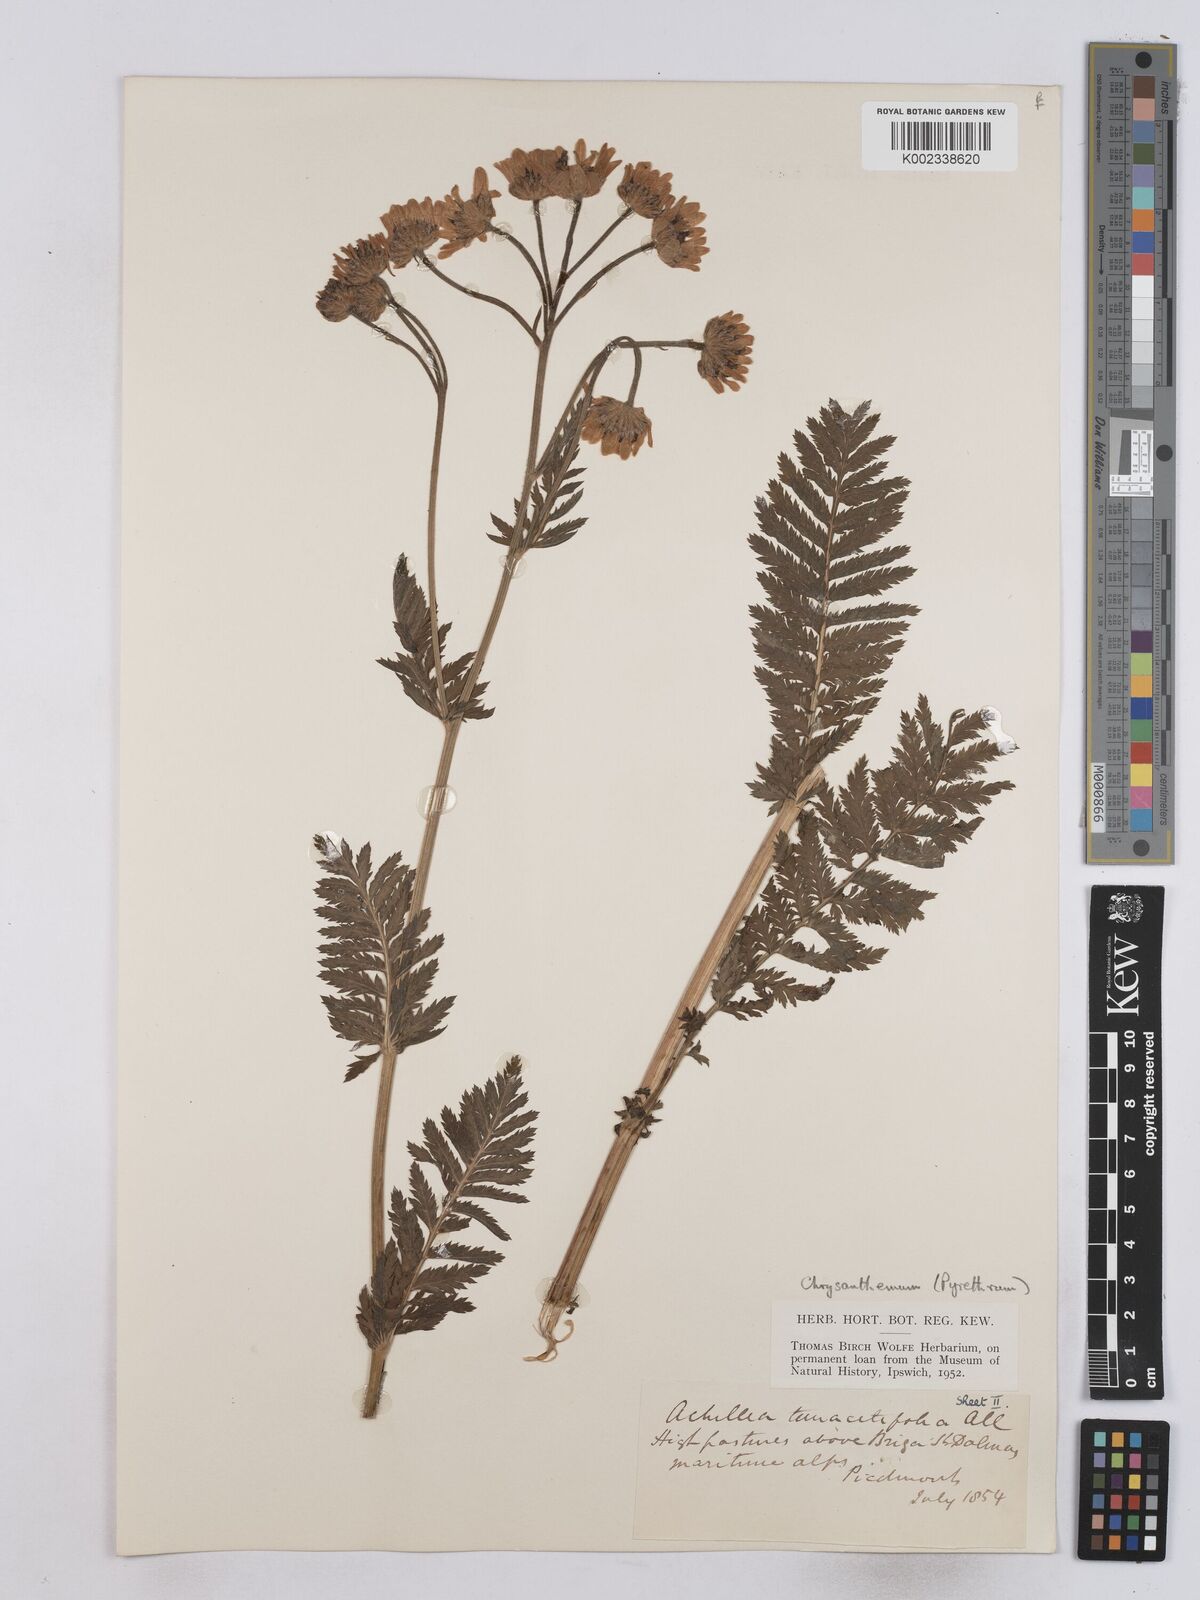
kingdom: Plantae
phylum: Tracheophyta
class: Magnoliopsida
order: Asterales
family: Asteraceae
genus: Tanacetum
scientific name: Tanacetum corymbosum
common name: Scentless feverfew
